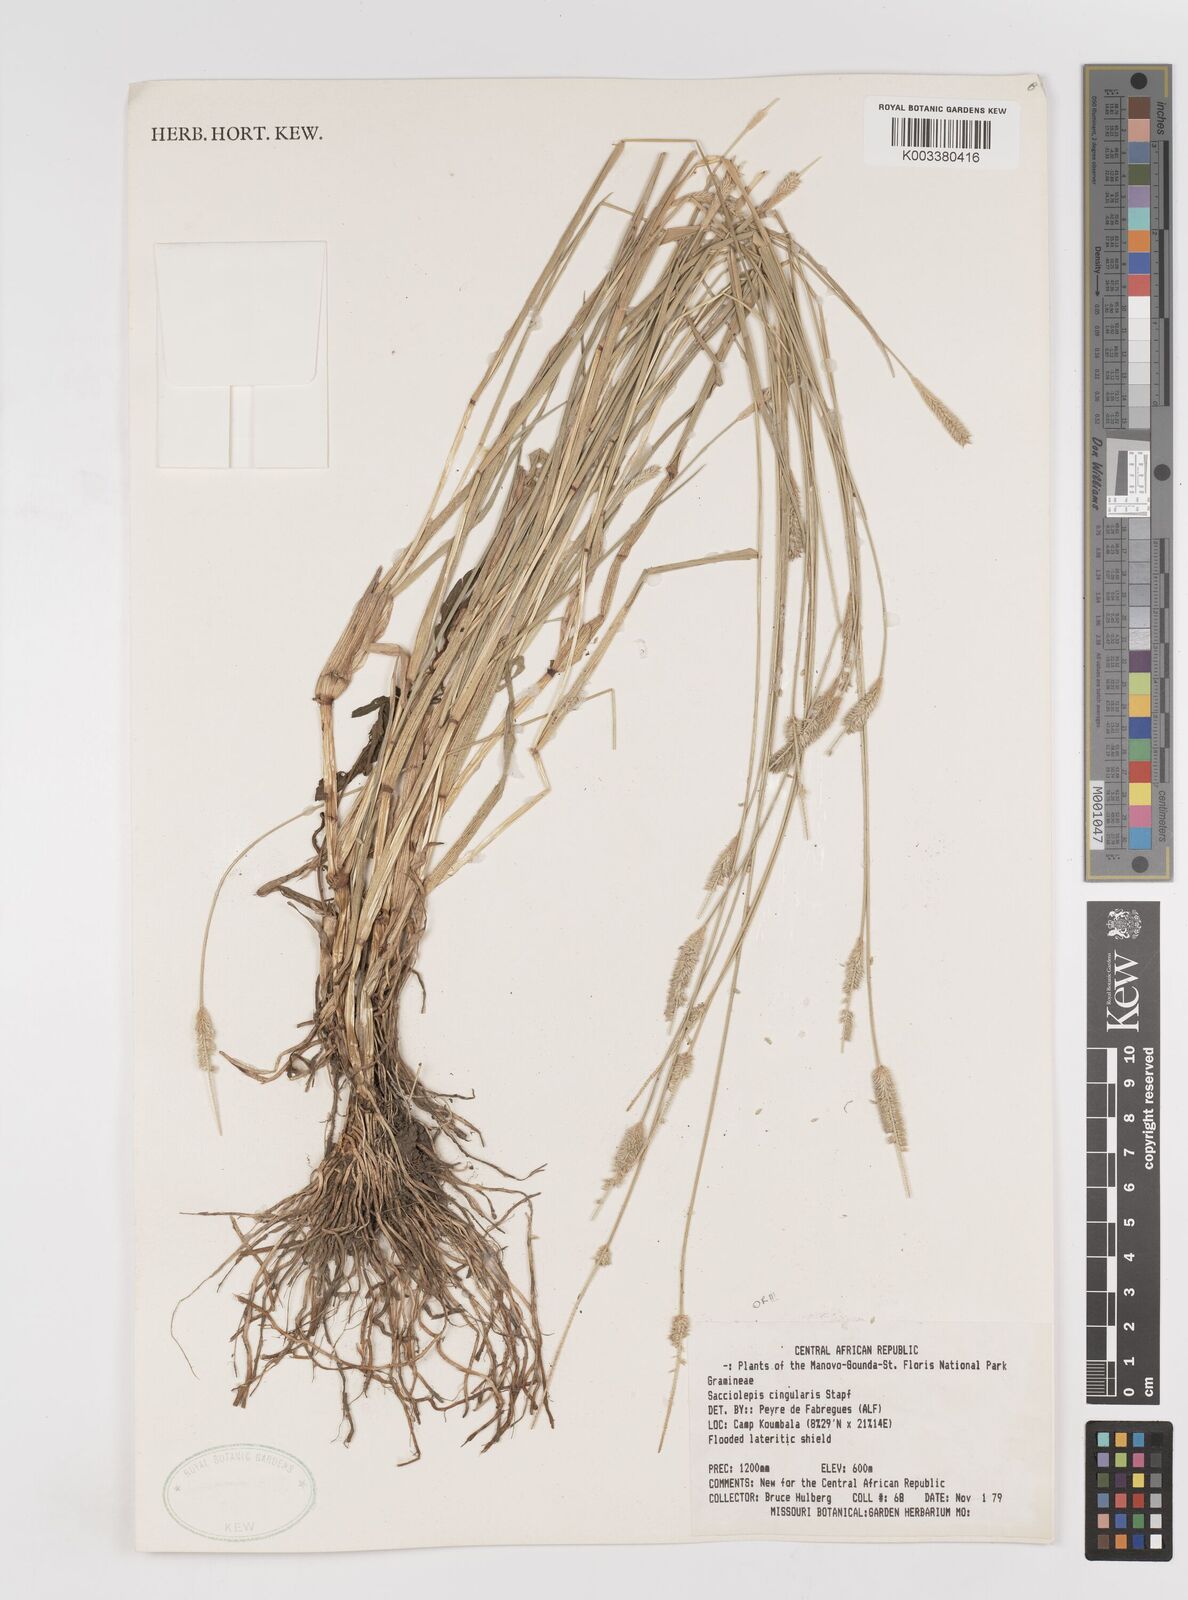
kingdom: Plantae
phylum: Tracheophyta
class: Liliopsida
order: Poales
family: Poaceae
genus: Sacciolepis
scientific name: Sacciolepis cingularis
